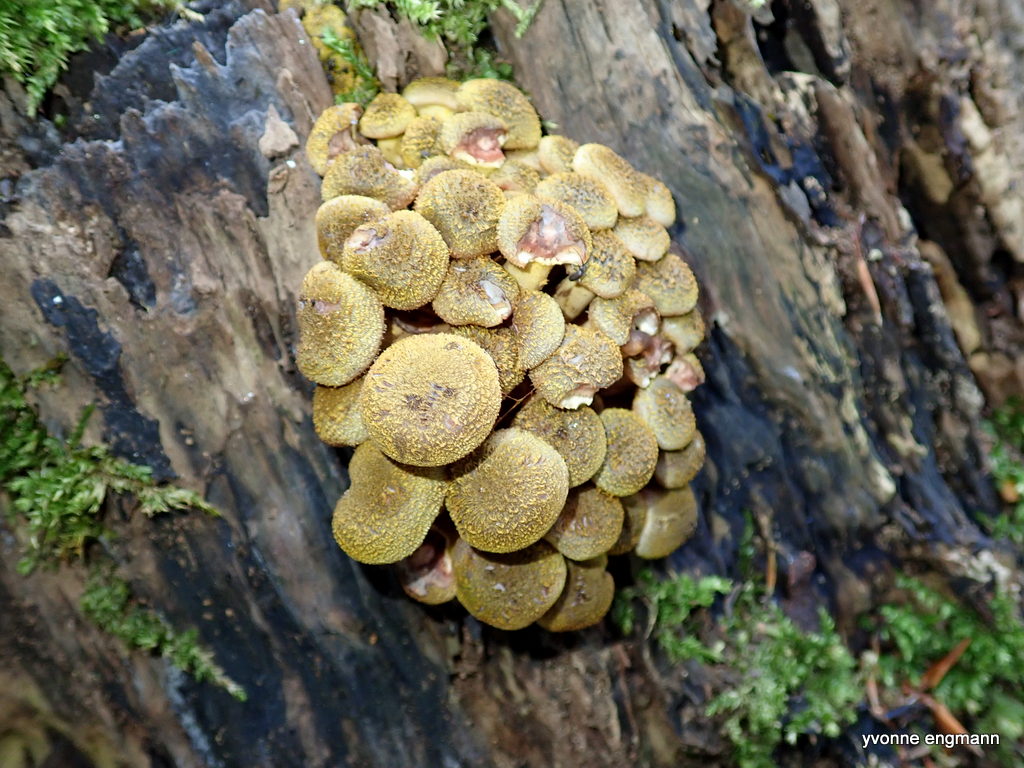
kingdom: Fungi
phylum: Basidiomycota
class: Agaricomycetes
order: Agaricales
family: Physalacriaceae
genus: Armillaria
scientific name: Armillaria mellea
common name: ægte honningsvamp
